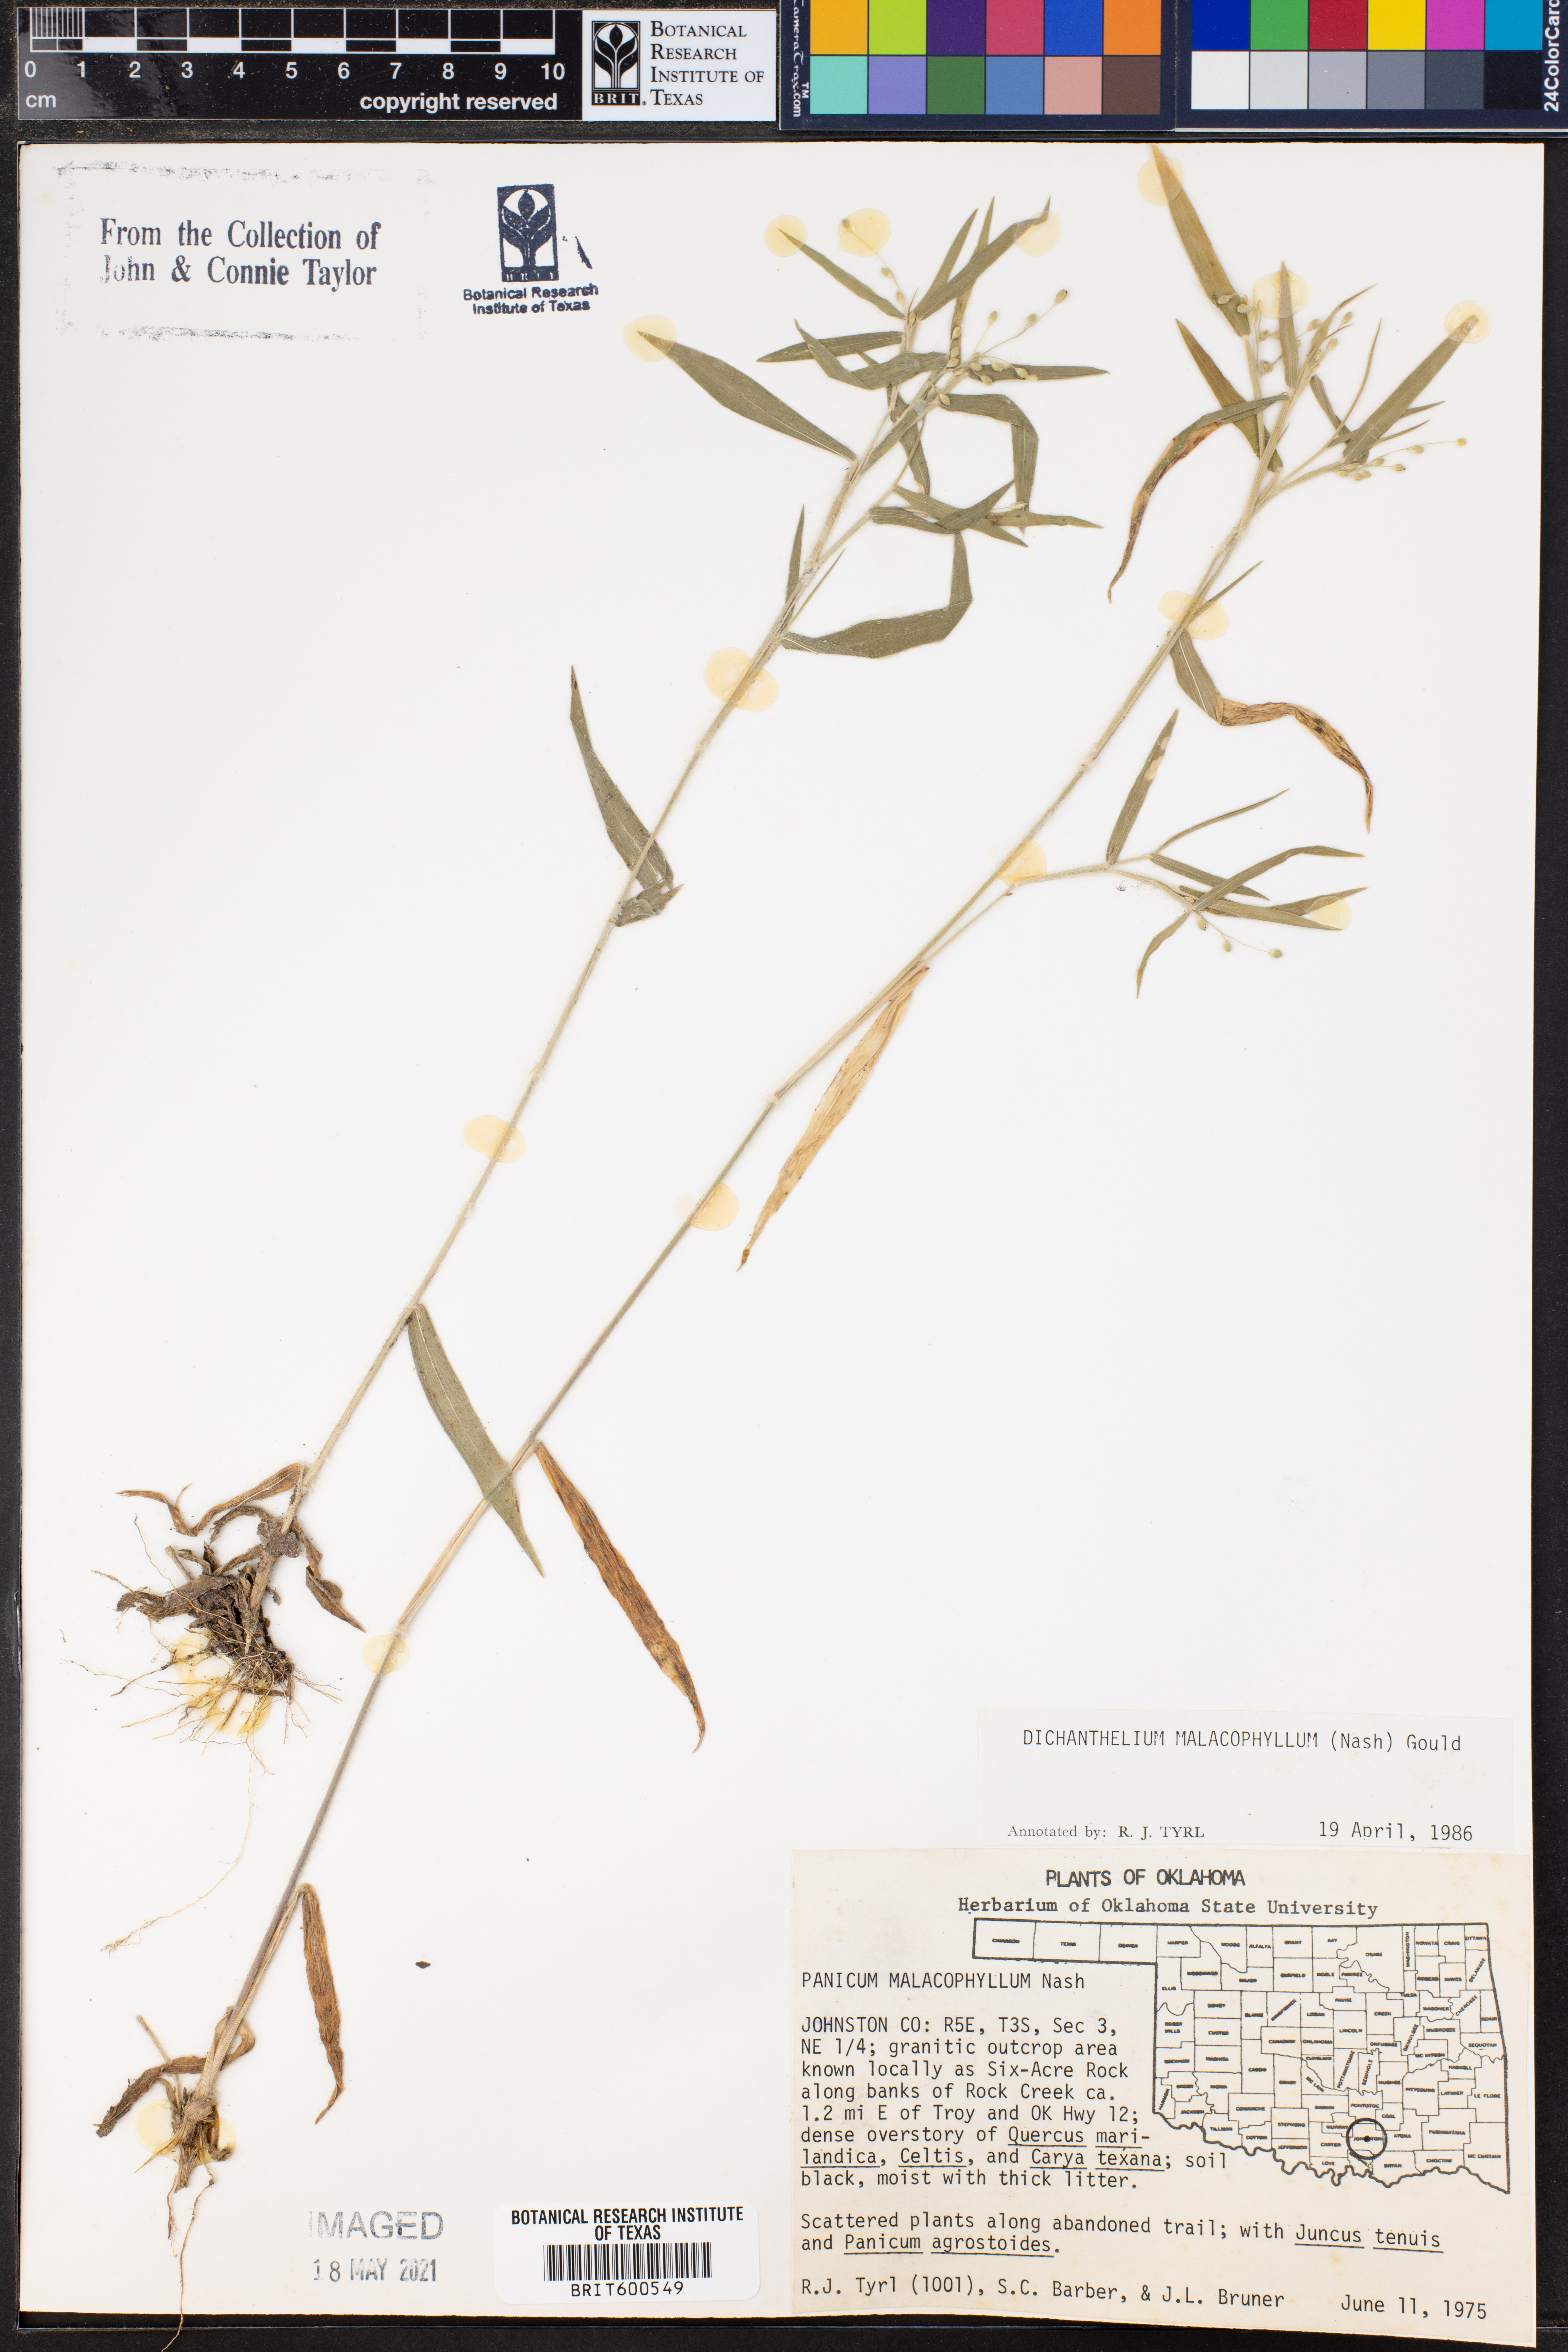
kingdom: Plantae
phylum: Tracheophyta
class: Liliopsida
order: Poales
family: Poaceae
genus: Dichanthelium
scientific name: Dichanthelium malacophyllum
